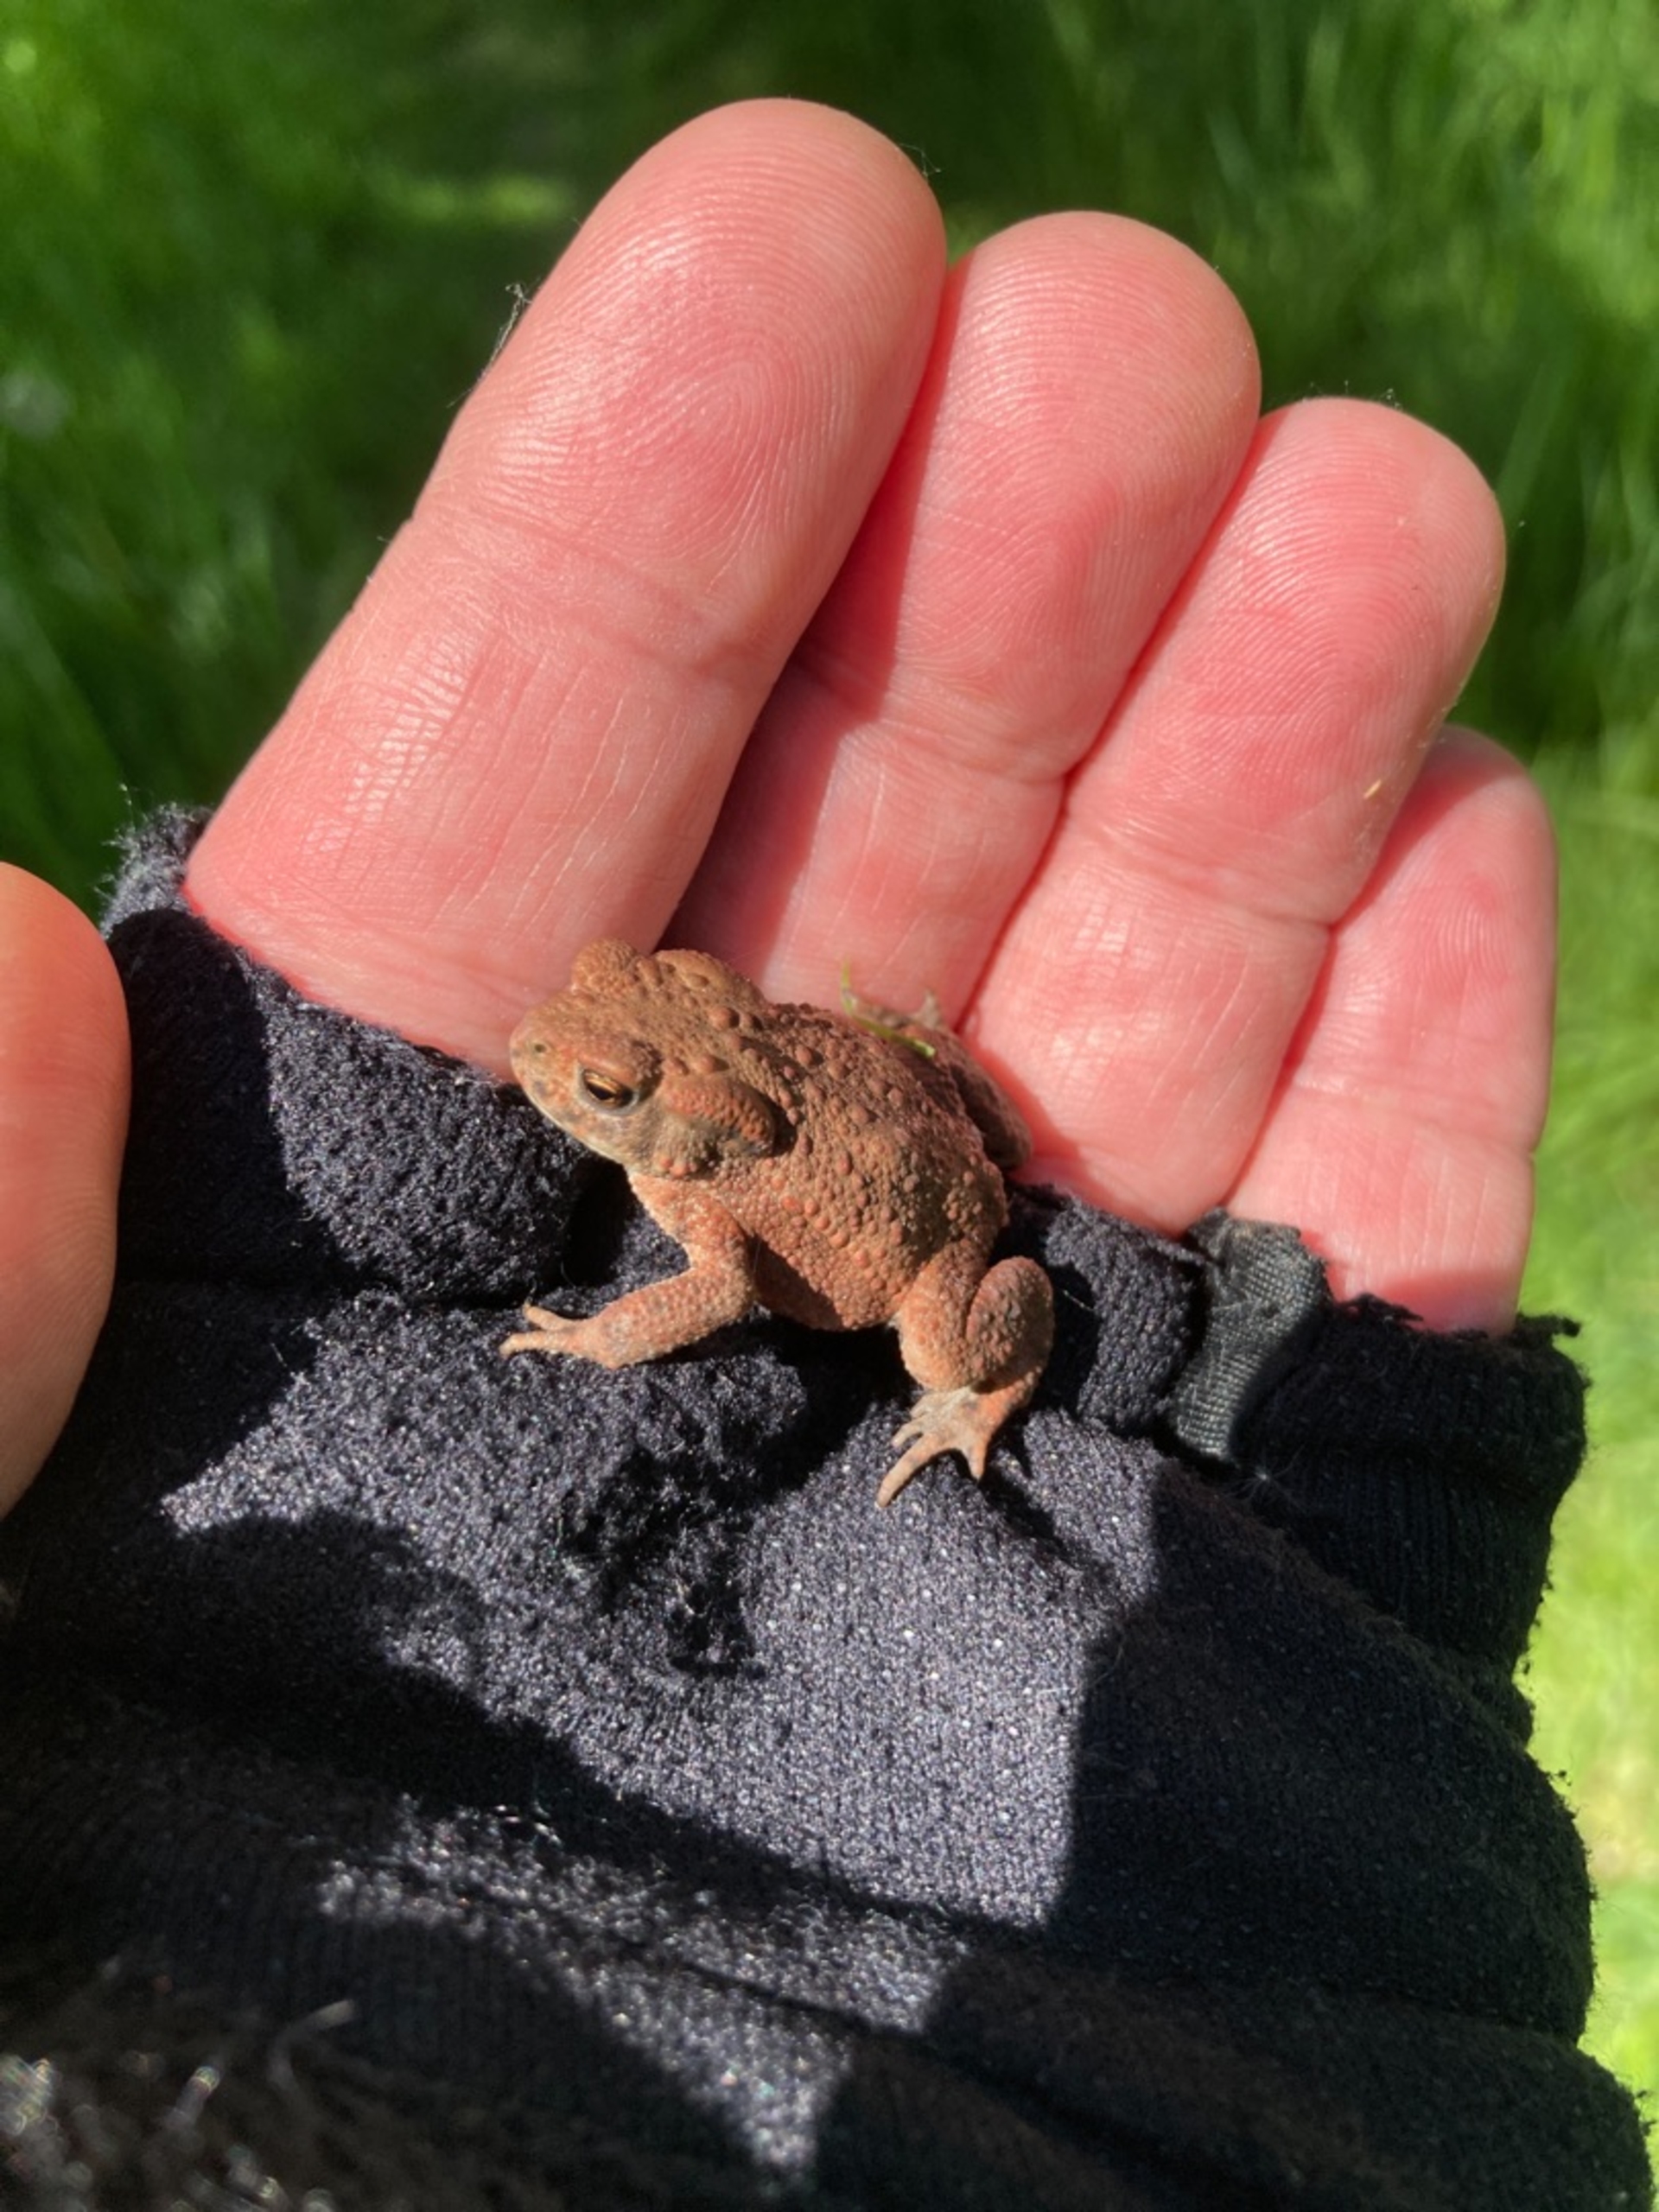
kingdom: Animalia
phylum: Chordata
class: Amphibia
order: Anura
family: Bufonidae
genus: Bufo
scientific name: Bufo bufo
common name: Skrubtudse
